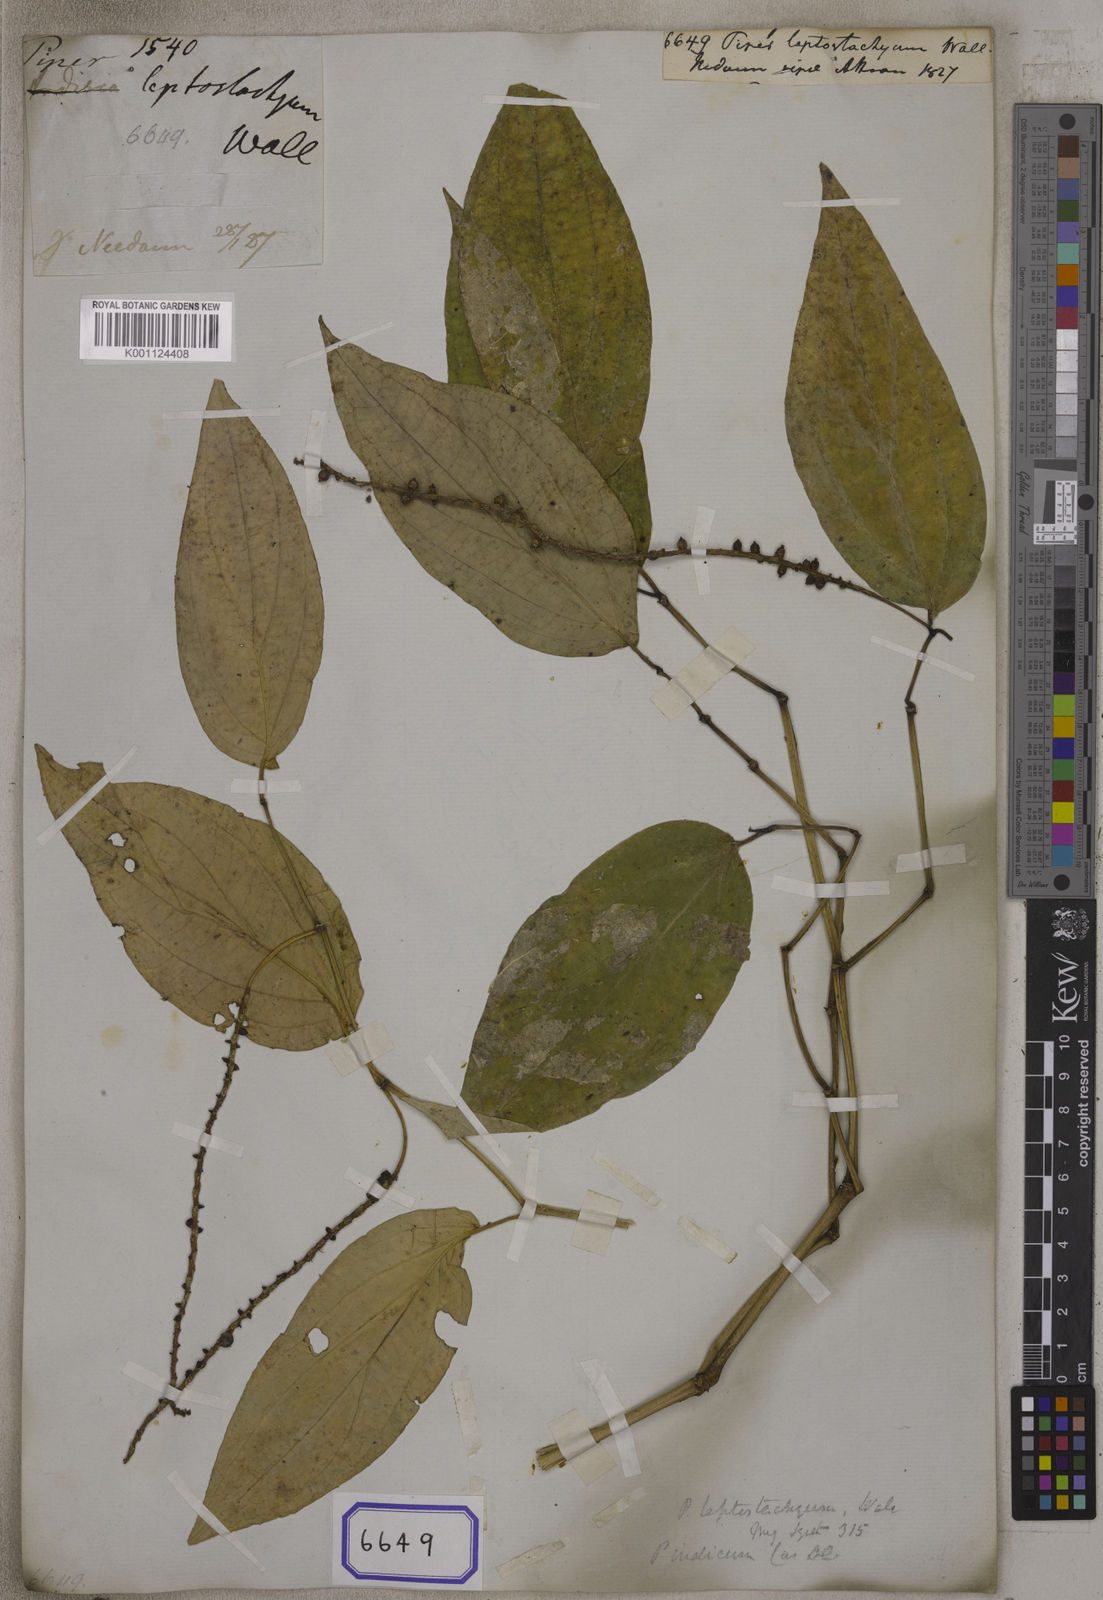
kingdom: Plantae
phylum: Tracheophyta
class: Magnoliopsida
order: Piperales
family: Piperaceae
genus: Piper
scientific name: Piper
